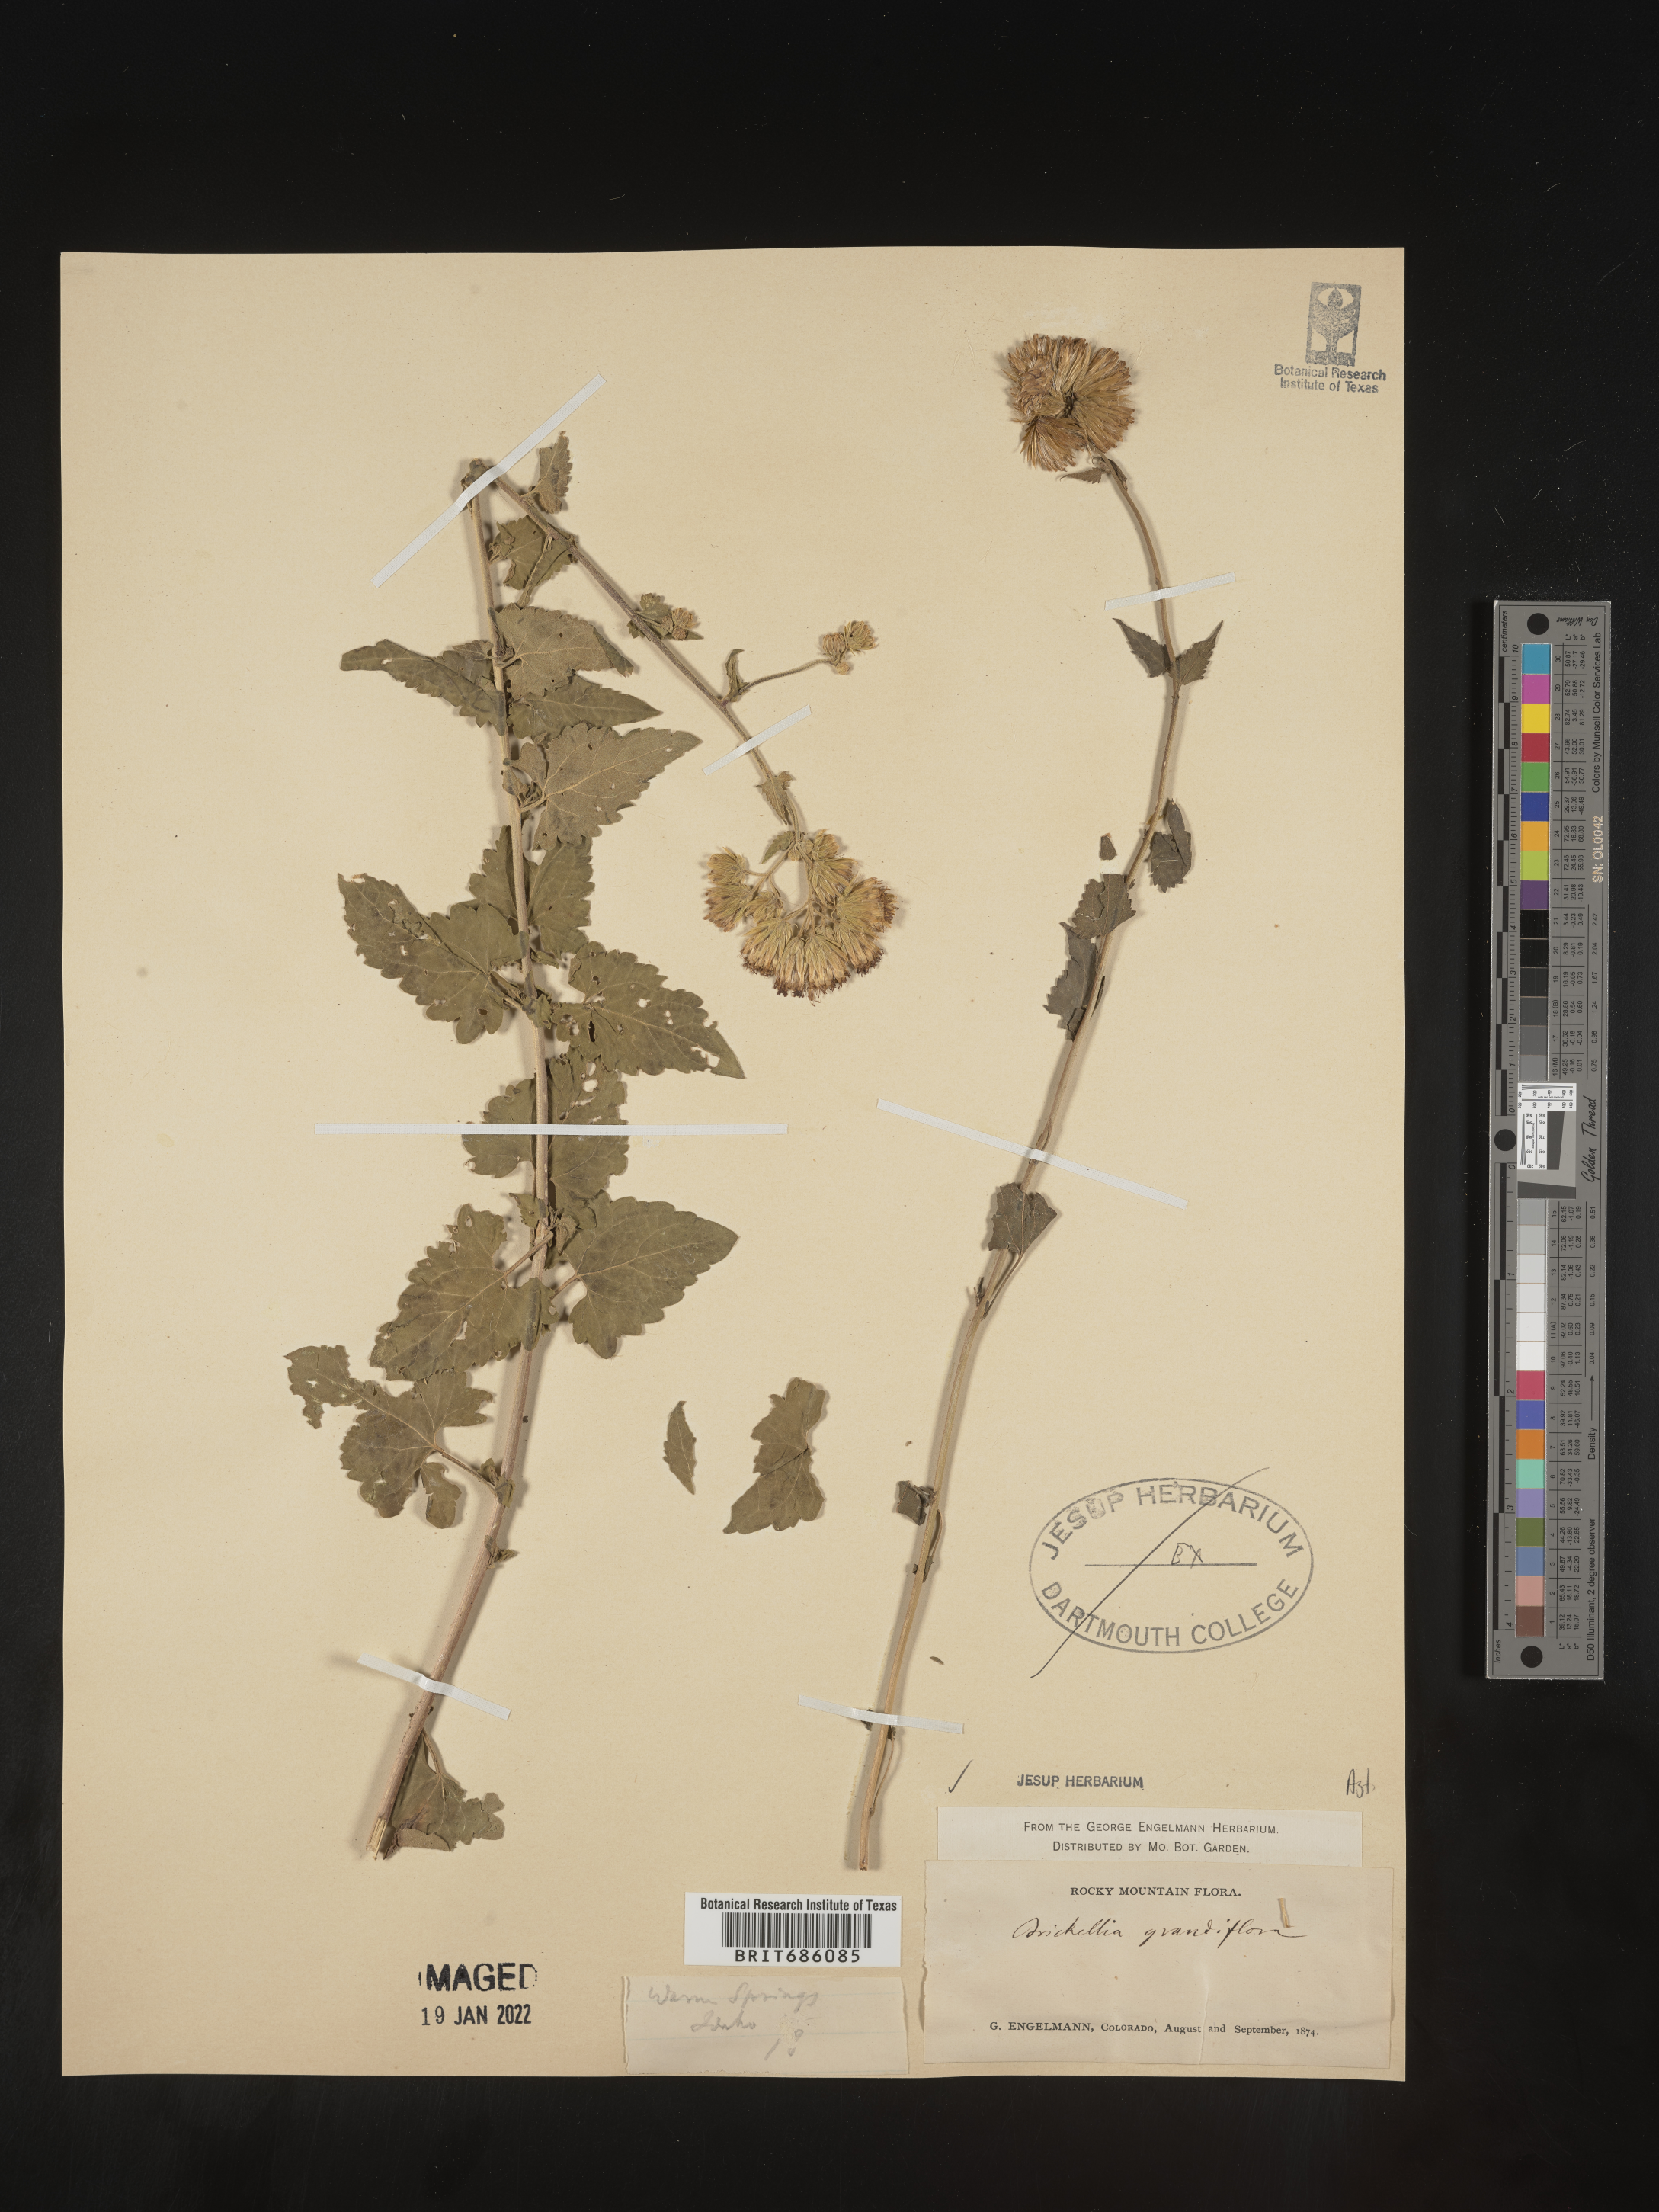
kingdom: Plantae
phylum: Tracheophyta
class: Magnoliopsida
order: Asterales
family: Asteraceae
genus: Brickellia
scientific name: Brickellia grandiflora
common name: Large-flowered brickellia
